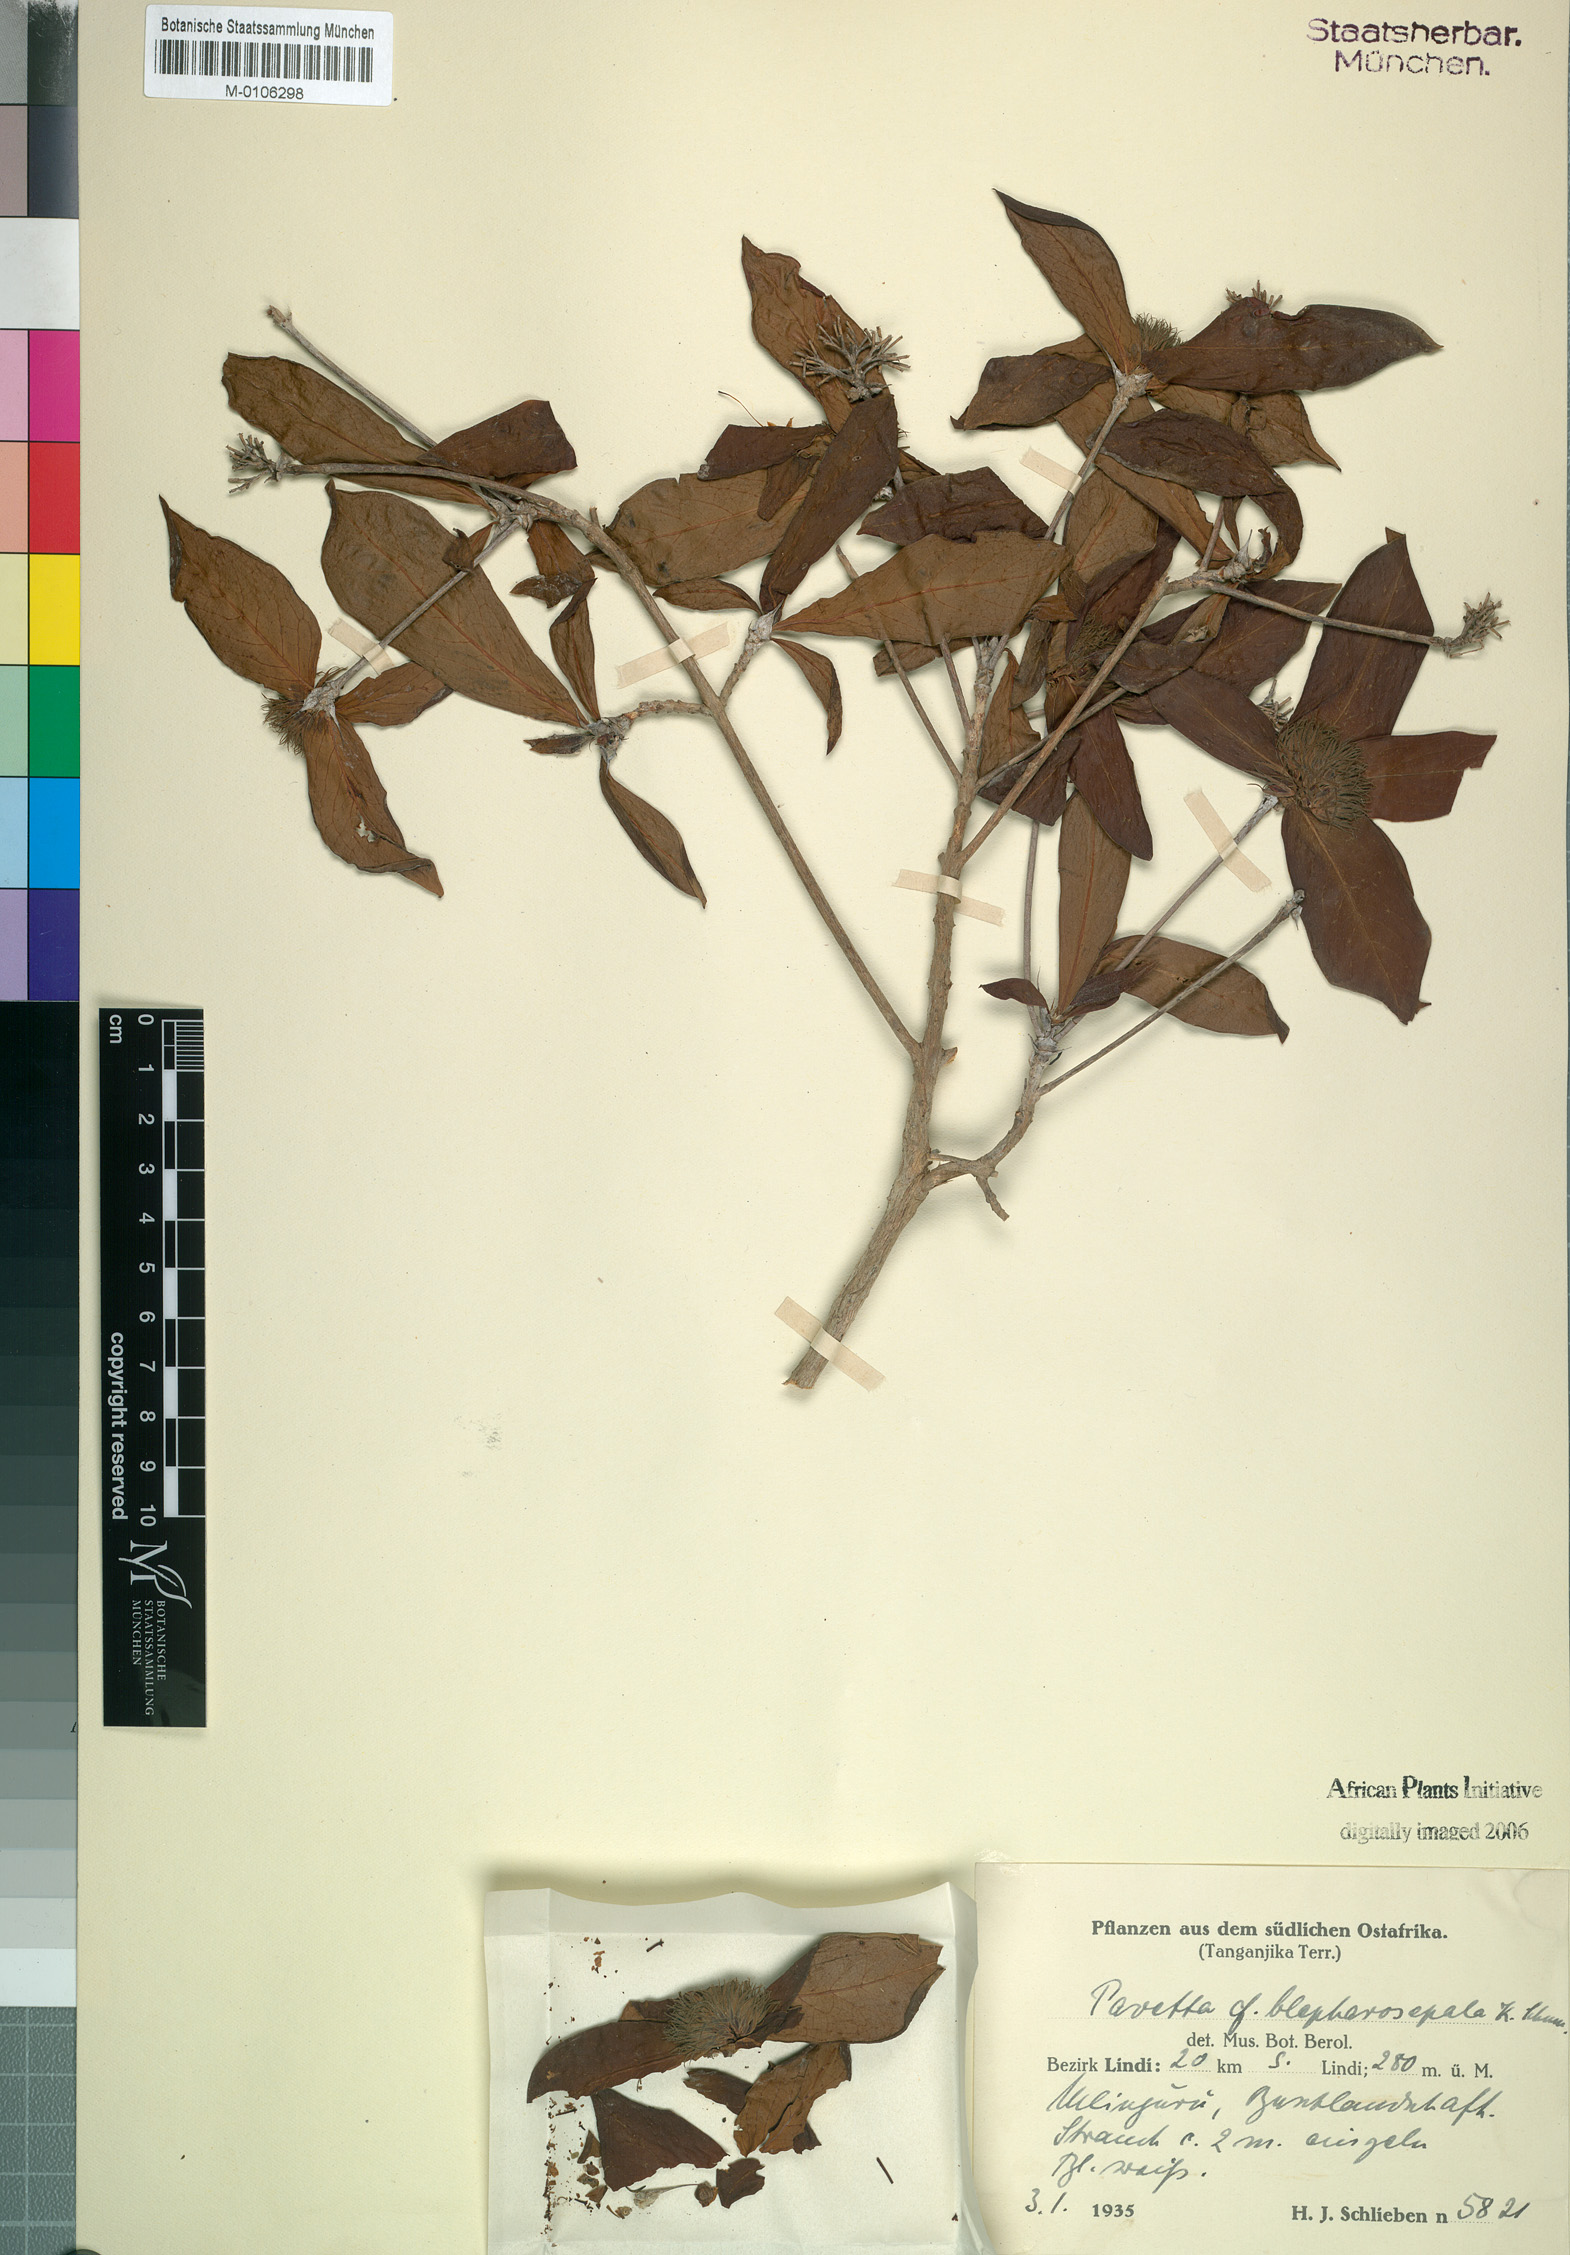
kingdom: Plantae
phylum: Tracheophyta
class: Magnoliopsida
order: Gentianales
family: Rubiaceae
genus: Pavetta
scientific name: Pavetta tendagurensis
